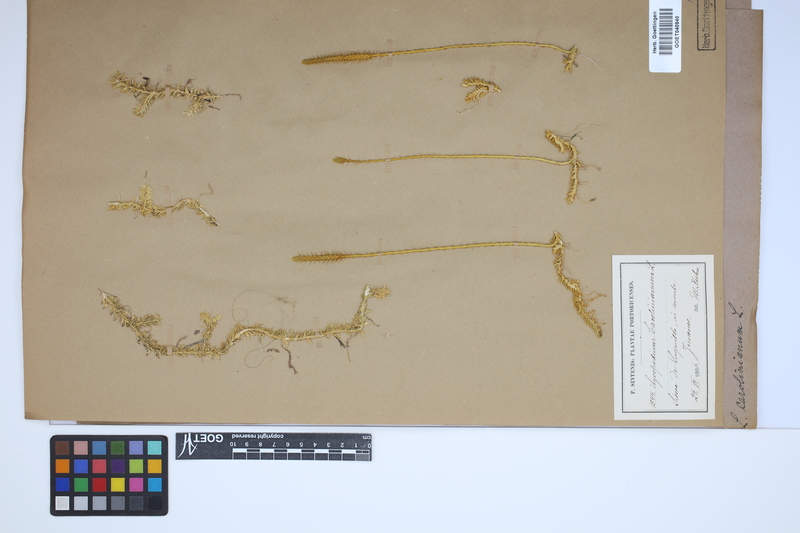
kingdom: Plantae
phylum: Tracheophyta
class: Lycopodiopsida
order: Lycopodiales
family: Lycopodiaceae
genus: Brownseya
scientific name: Brownseya serpentina
